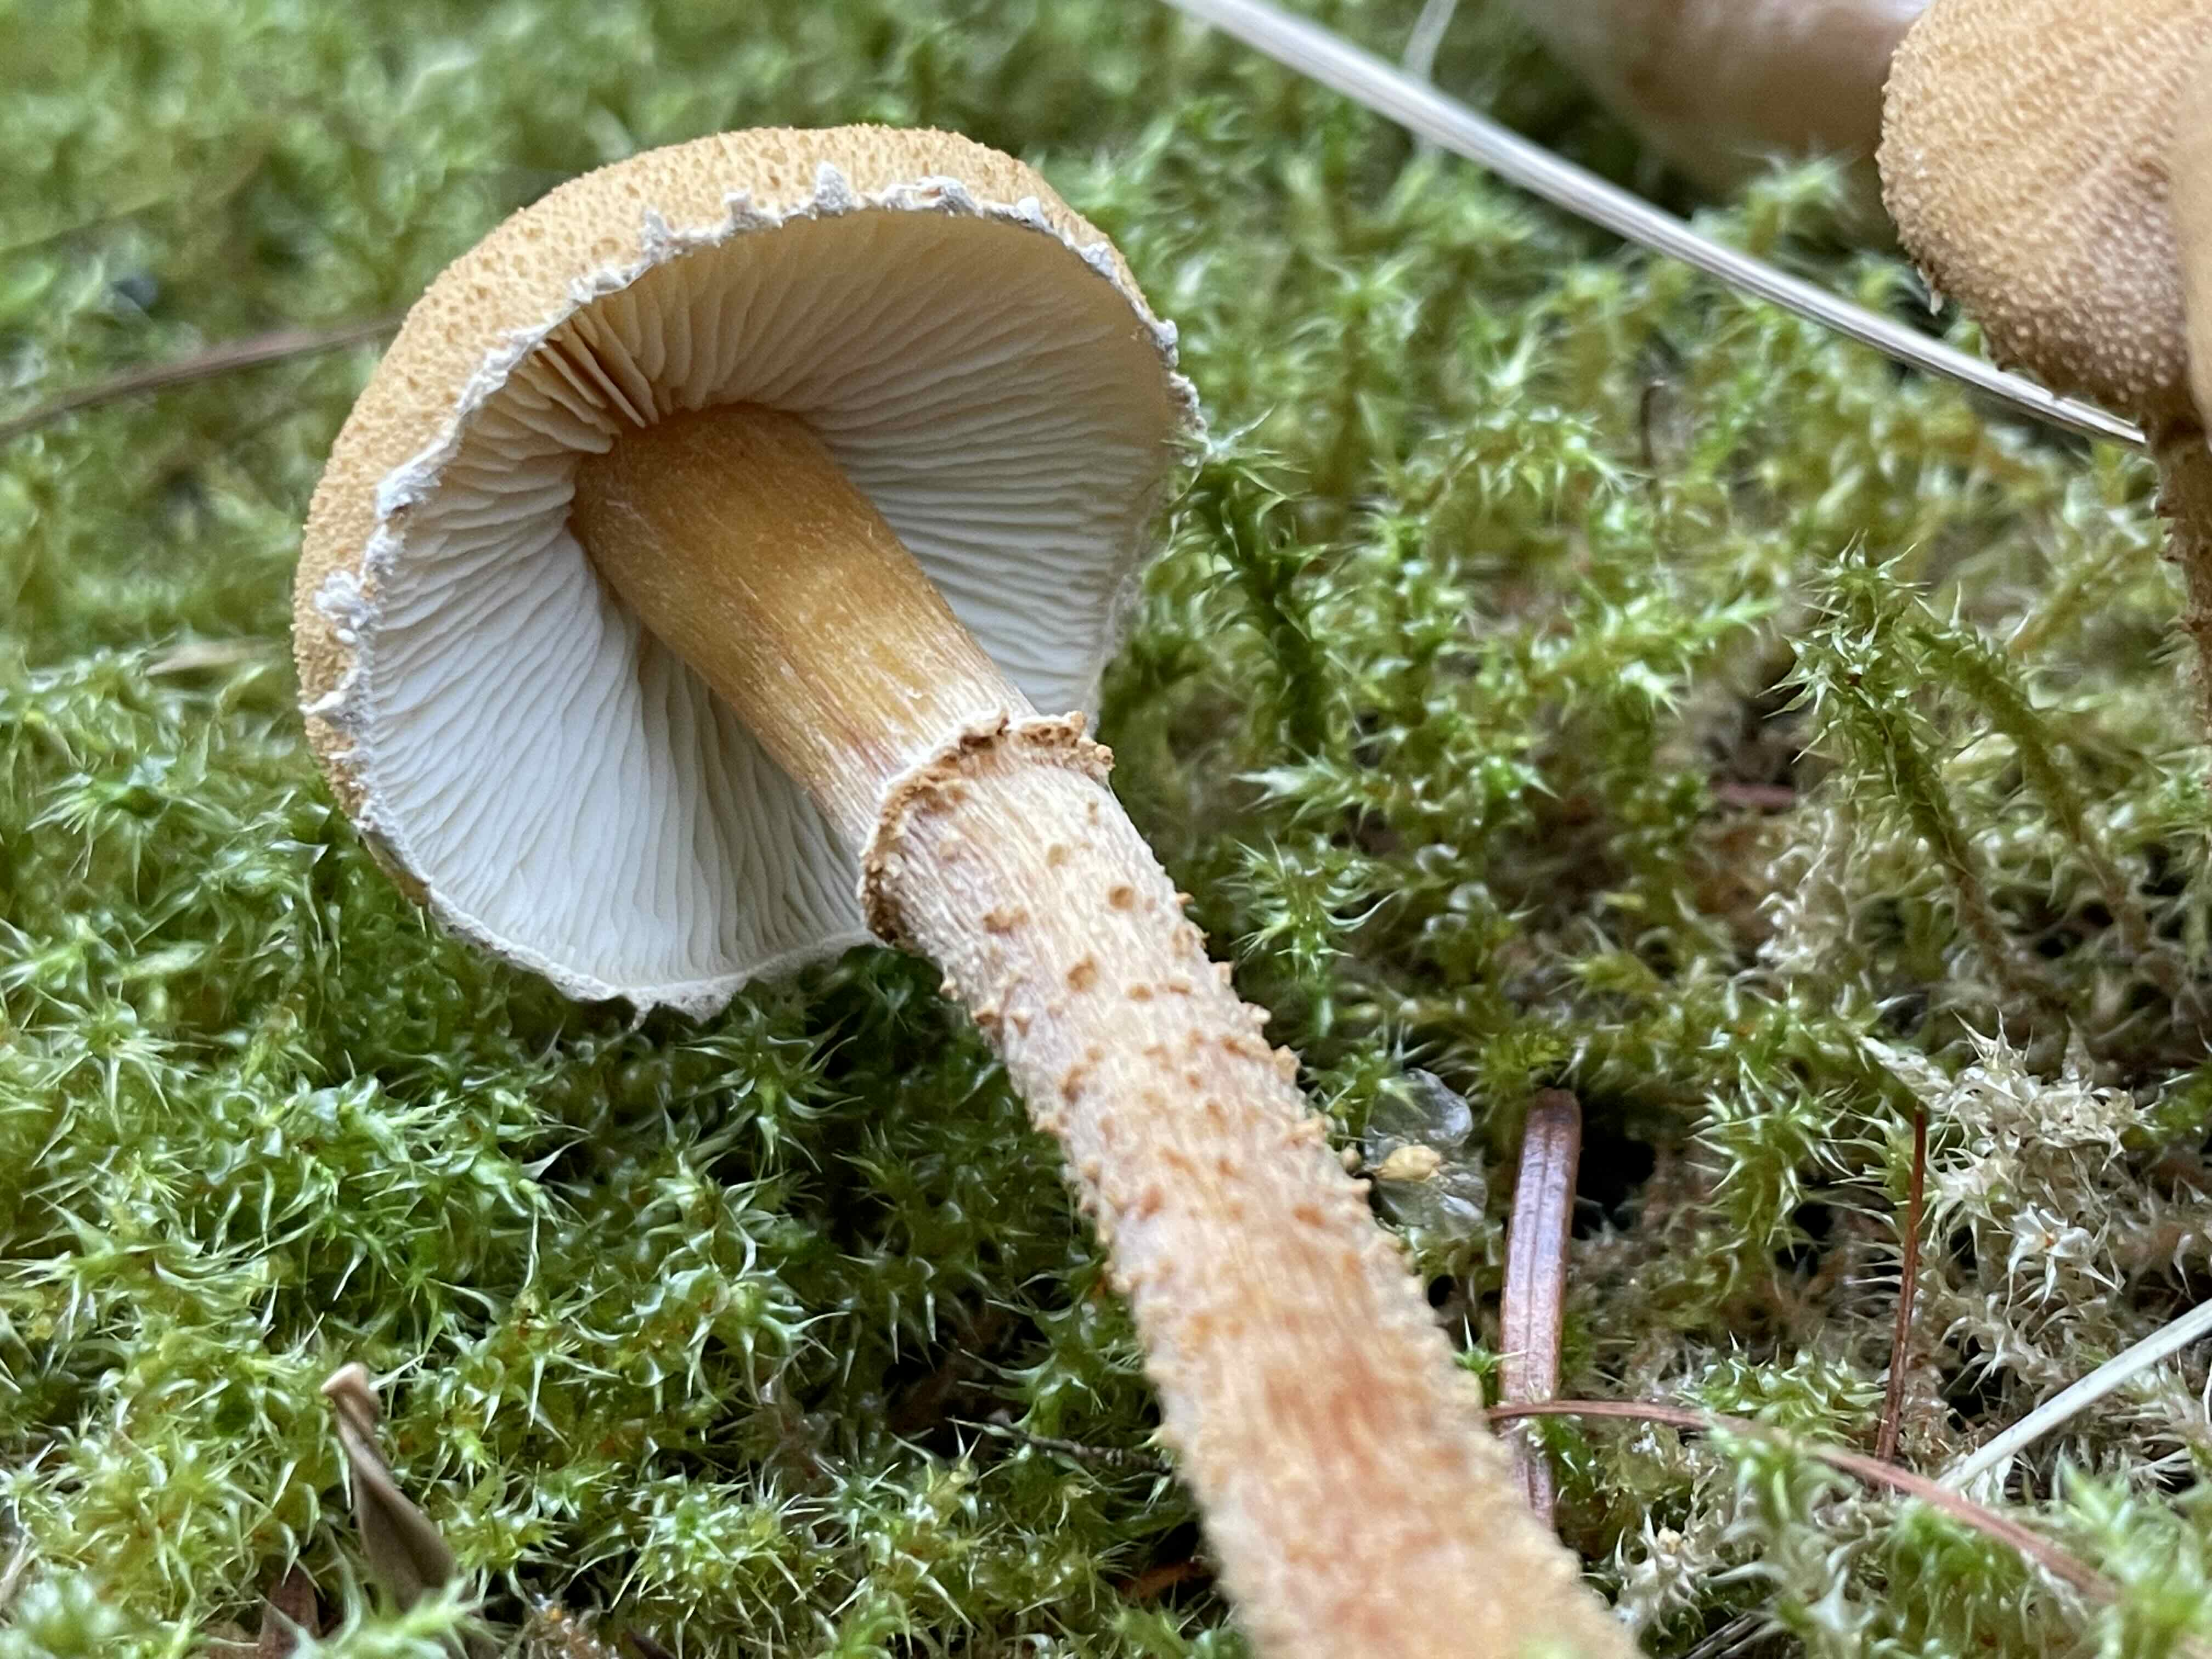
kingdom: Fungi
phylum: Basidiomycota
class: Agaricomycetes
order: Agaricales
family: Tricholomataceae
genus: Cystoderma
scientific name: Cystoderma amianthinum
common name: okkergul grynhat
